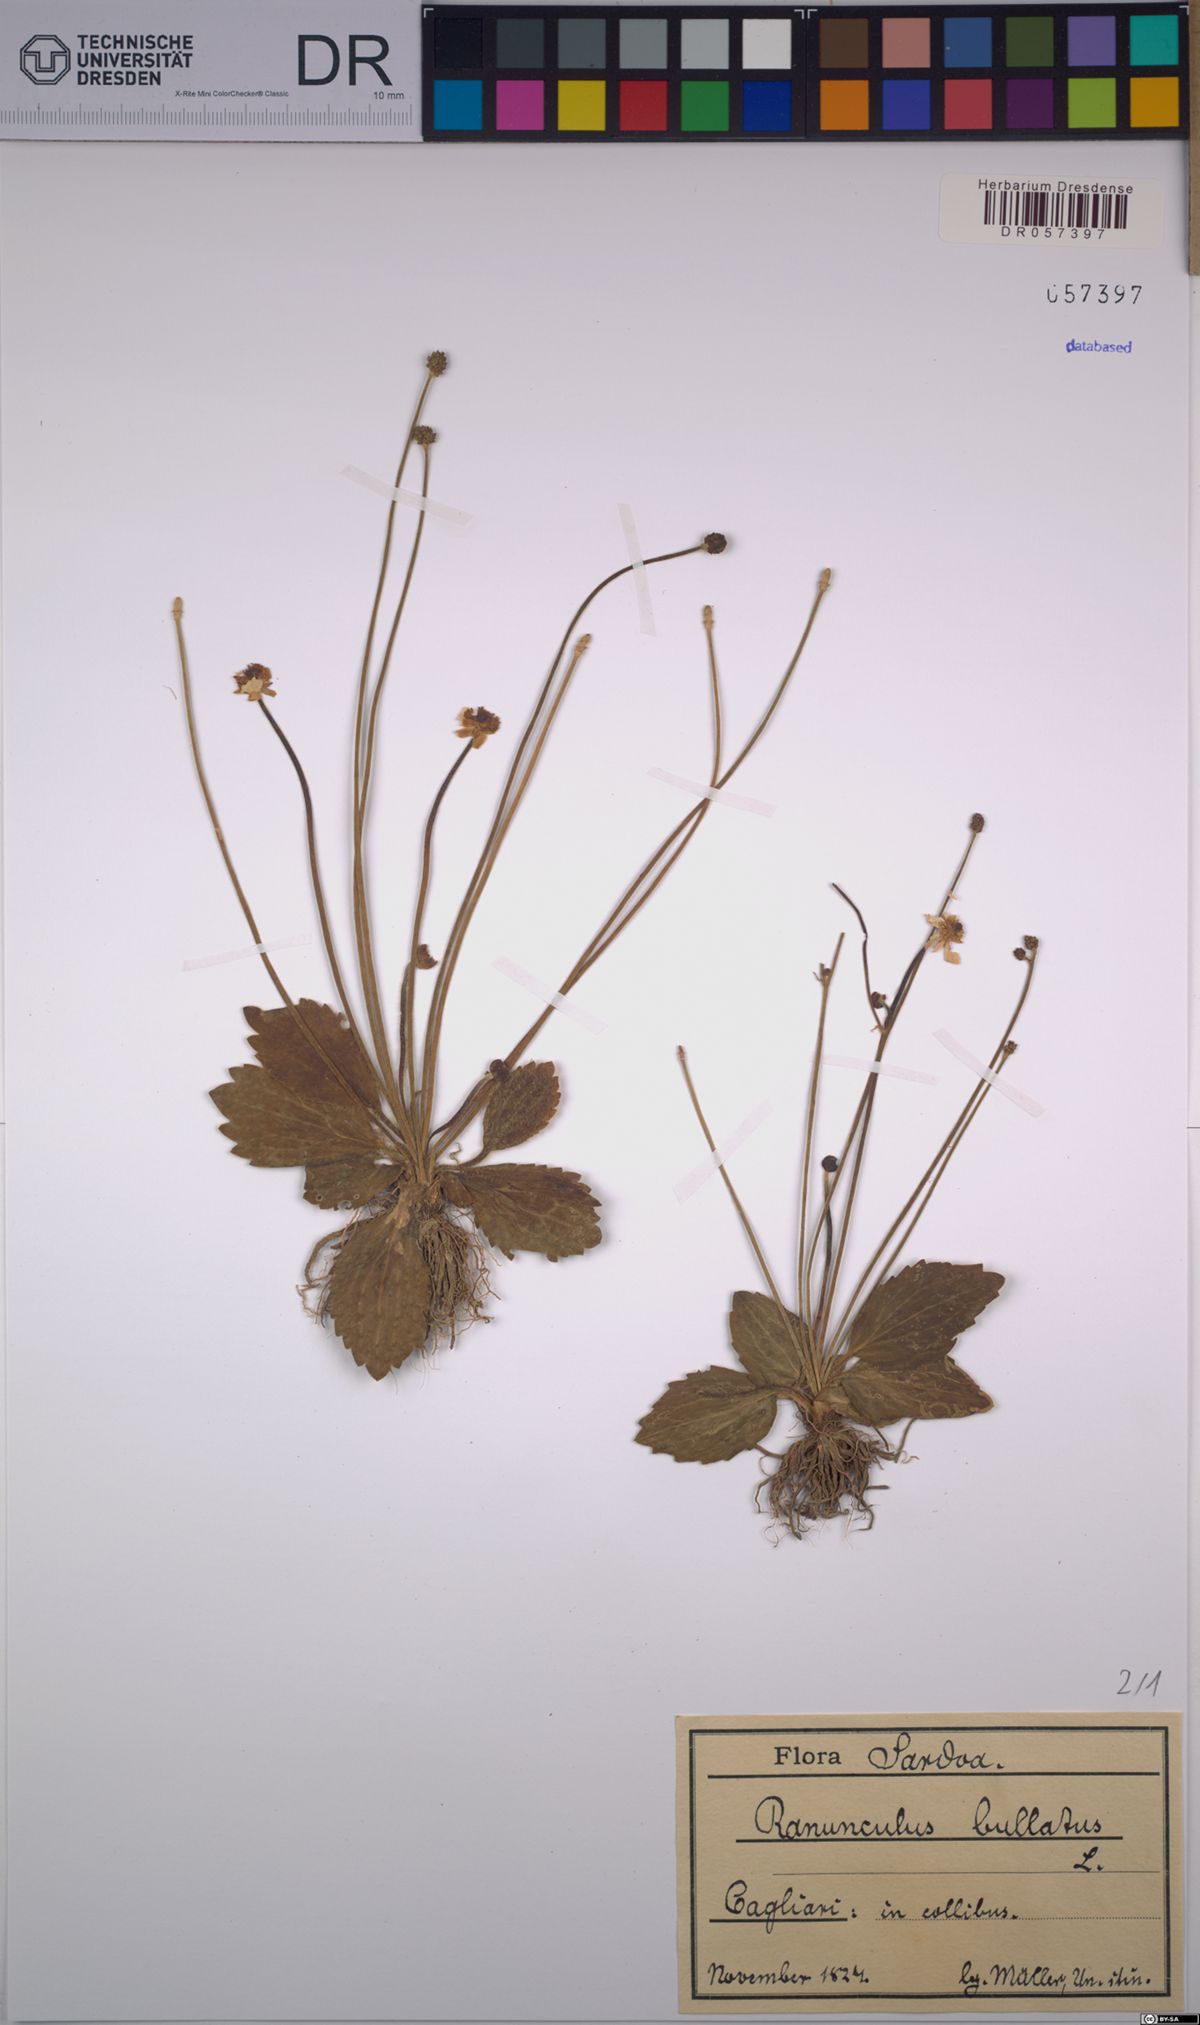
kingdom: Plantae
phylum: Tracheophyta
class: Magnoliopsida
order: Ranunculales
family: Ranunculaceae
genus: Ranunculus
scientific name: Ranunculus bullatus
